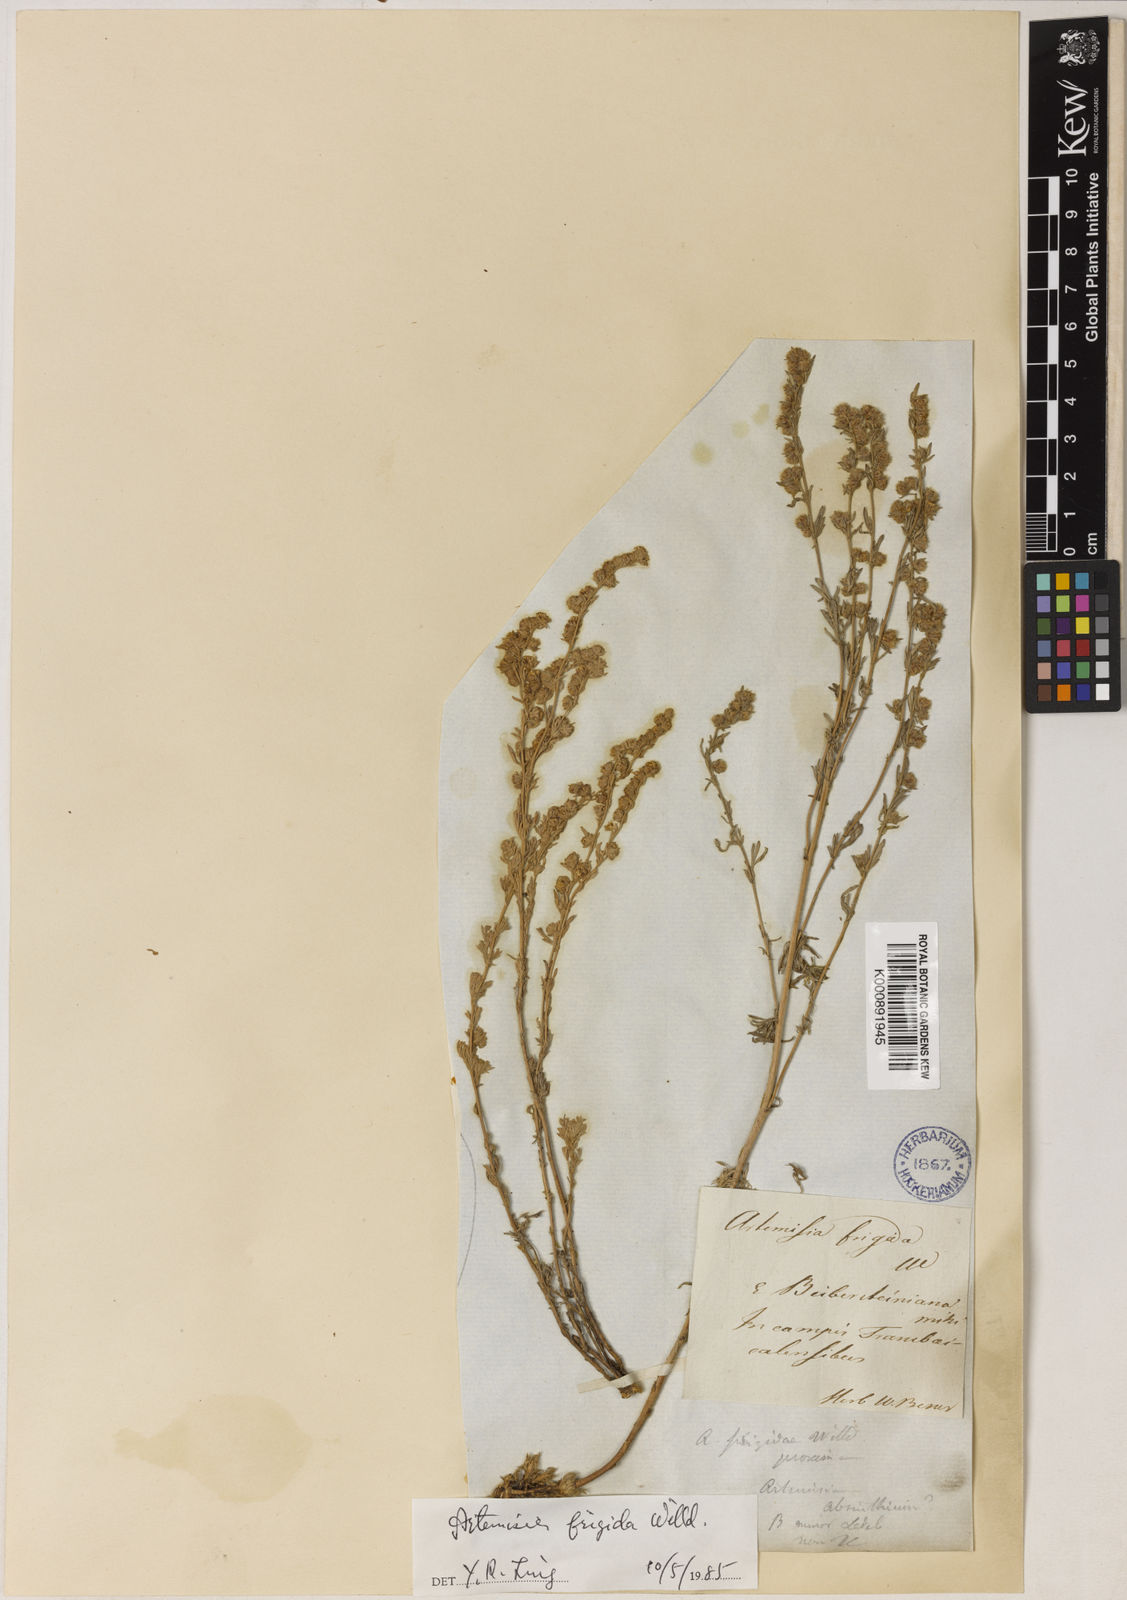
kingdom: Plantae
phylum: Tracheophyta
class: Magnoliopsida
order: Asterales
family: Asteraceae
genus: Artemisia
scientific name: Artemisia frigida
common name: Prairie sagewort
